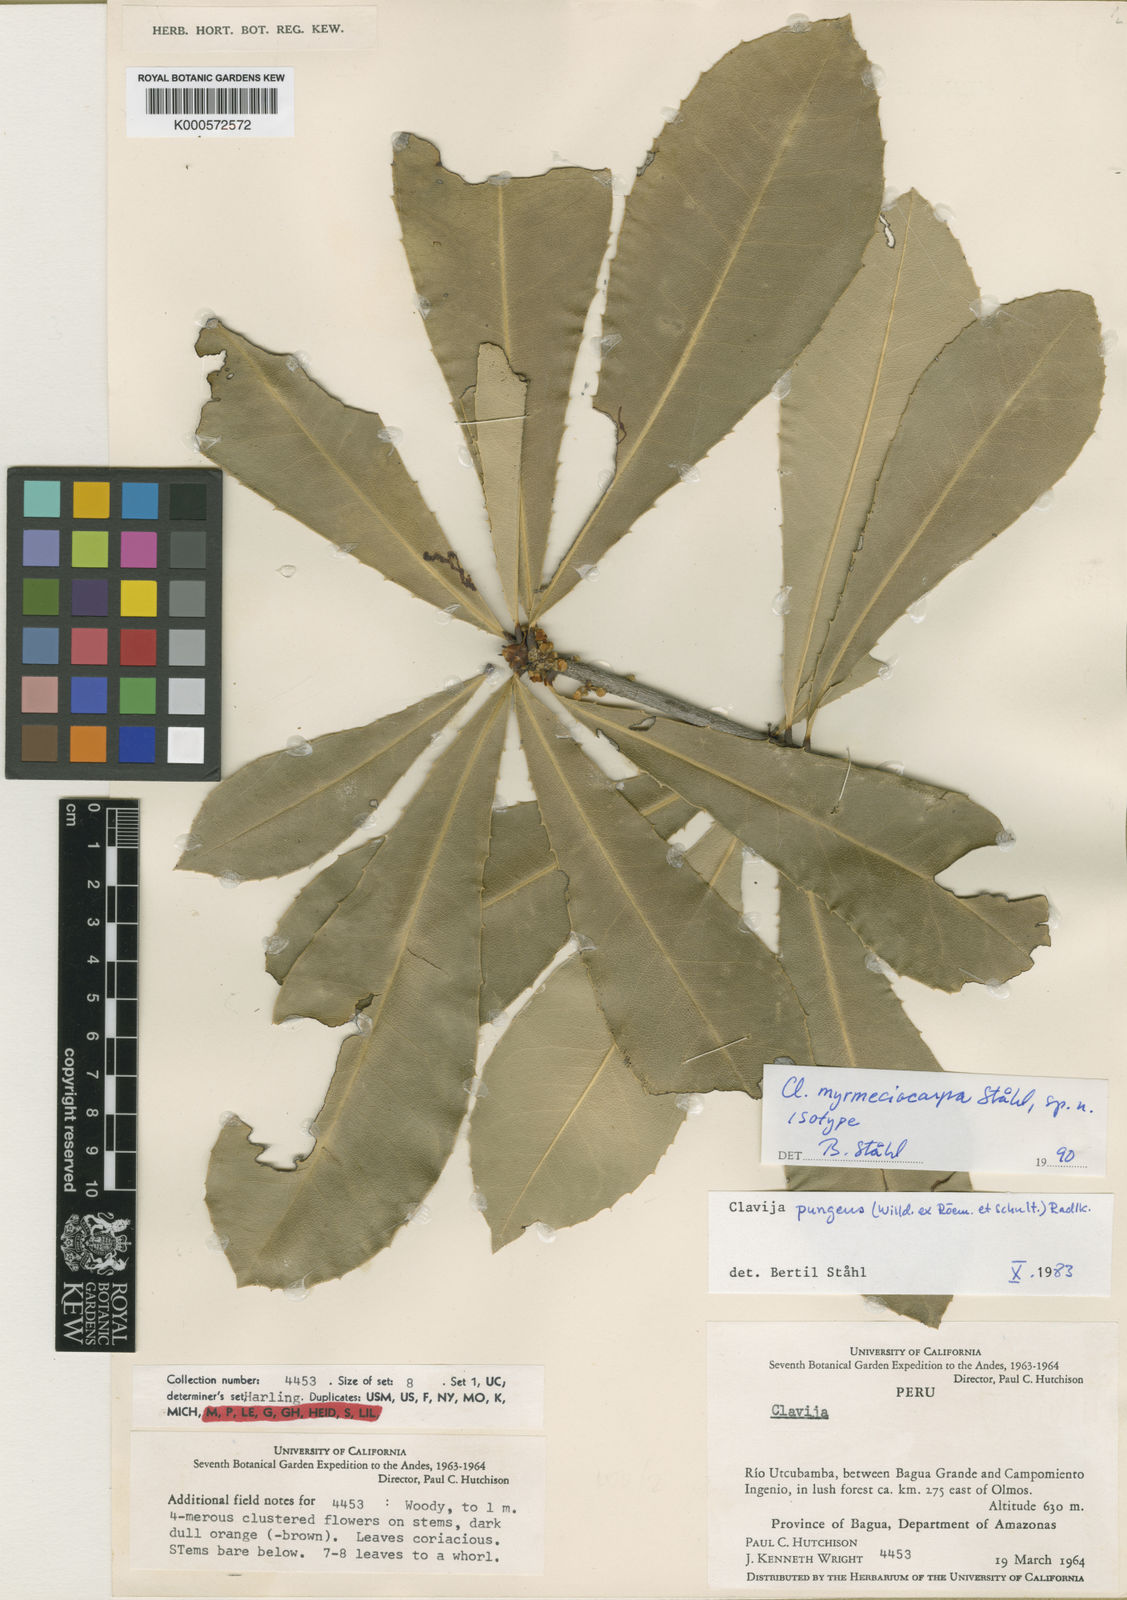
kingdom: Plantae
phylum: Tracheophyta
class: Magnoliopsida
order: Ericales
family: Primulaceae
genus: Clavija
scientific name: Clavija
